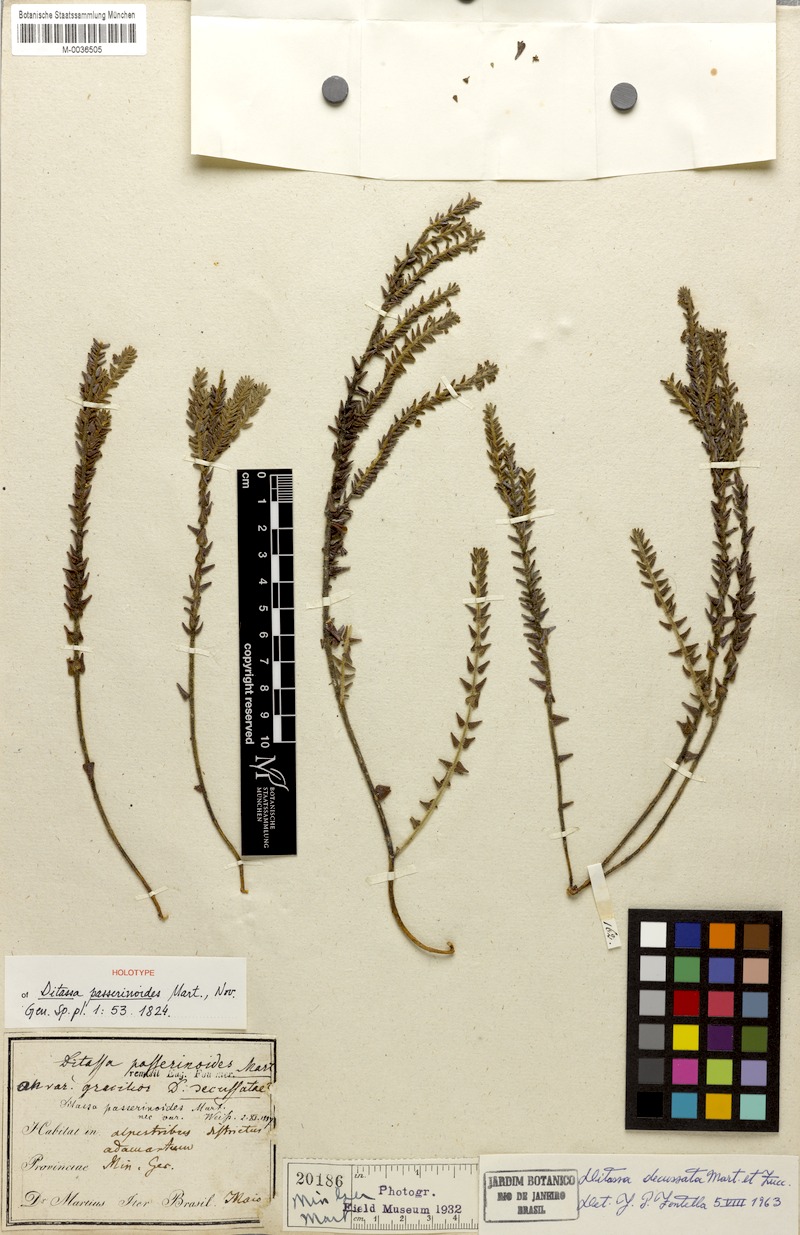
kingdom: Plantae
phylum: Tracheophyta
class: Magnoliopsida
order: Gentianales
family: Apocynaceae
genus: Minaria
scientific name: Minaria decussata
